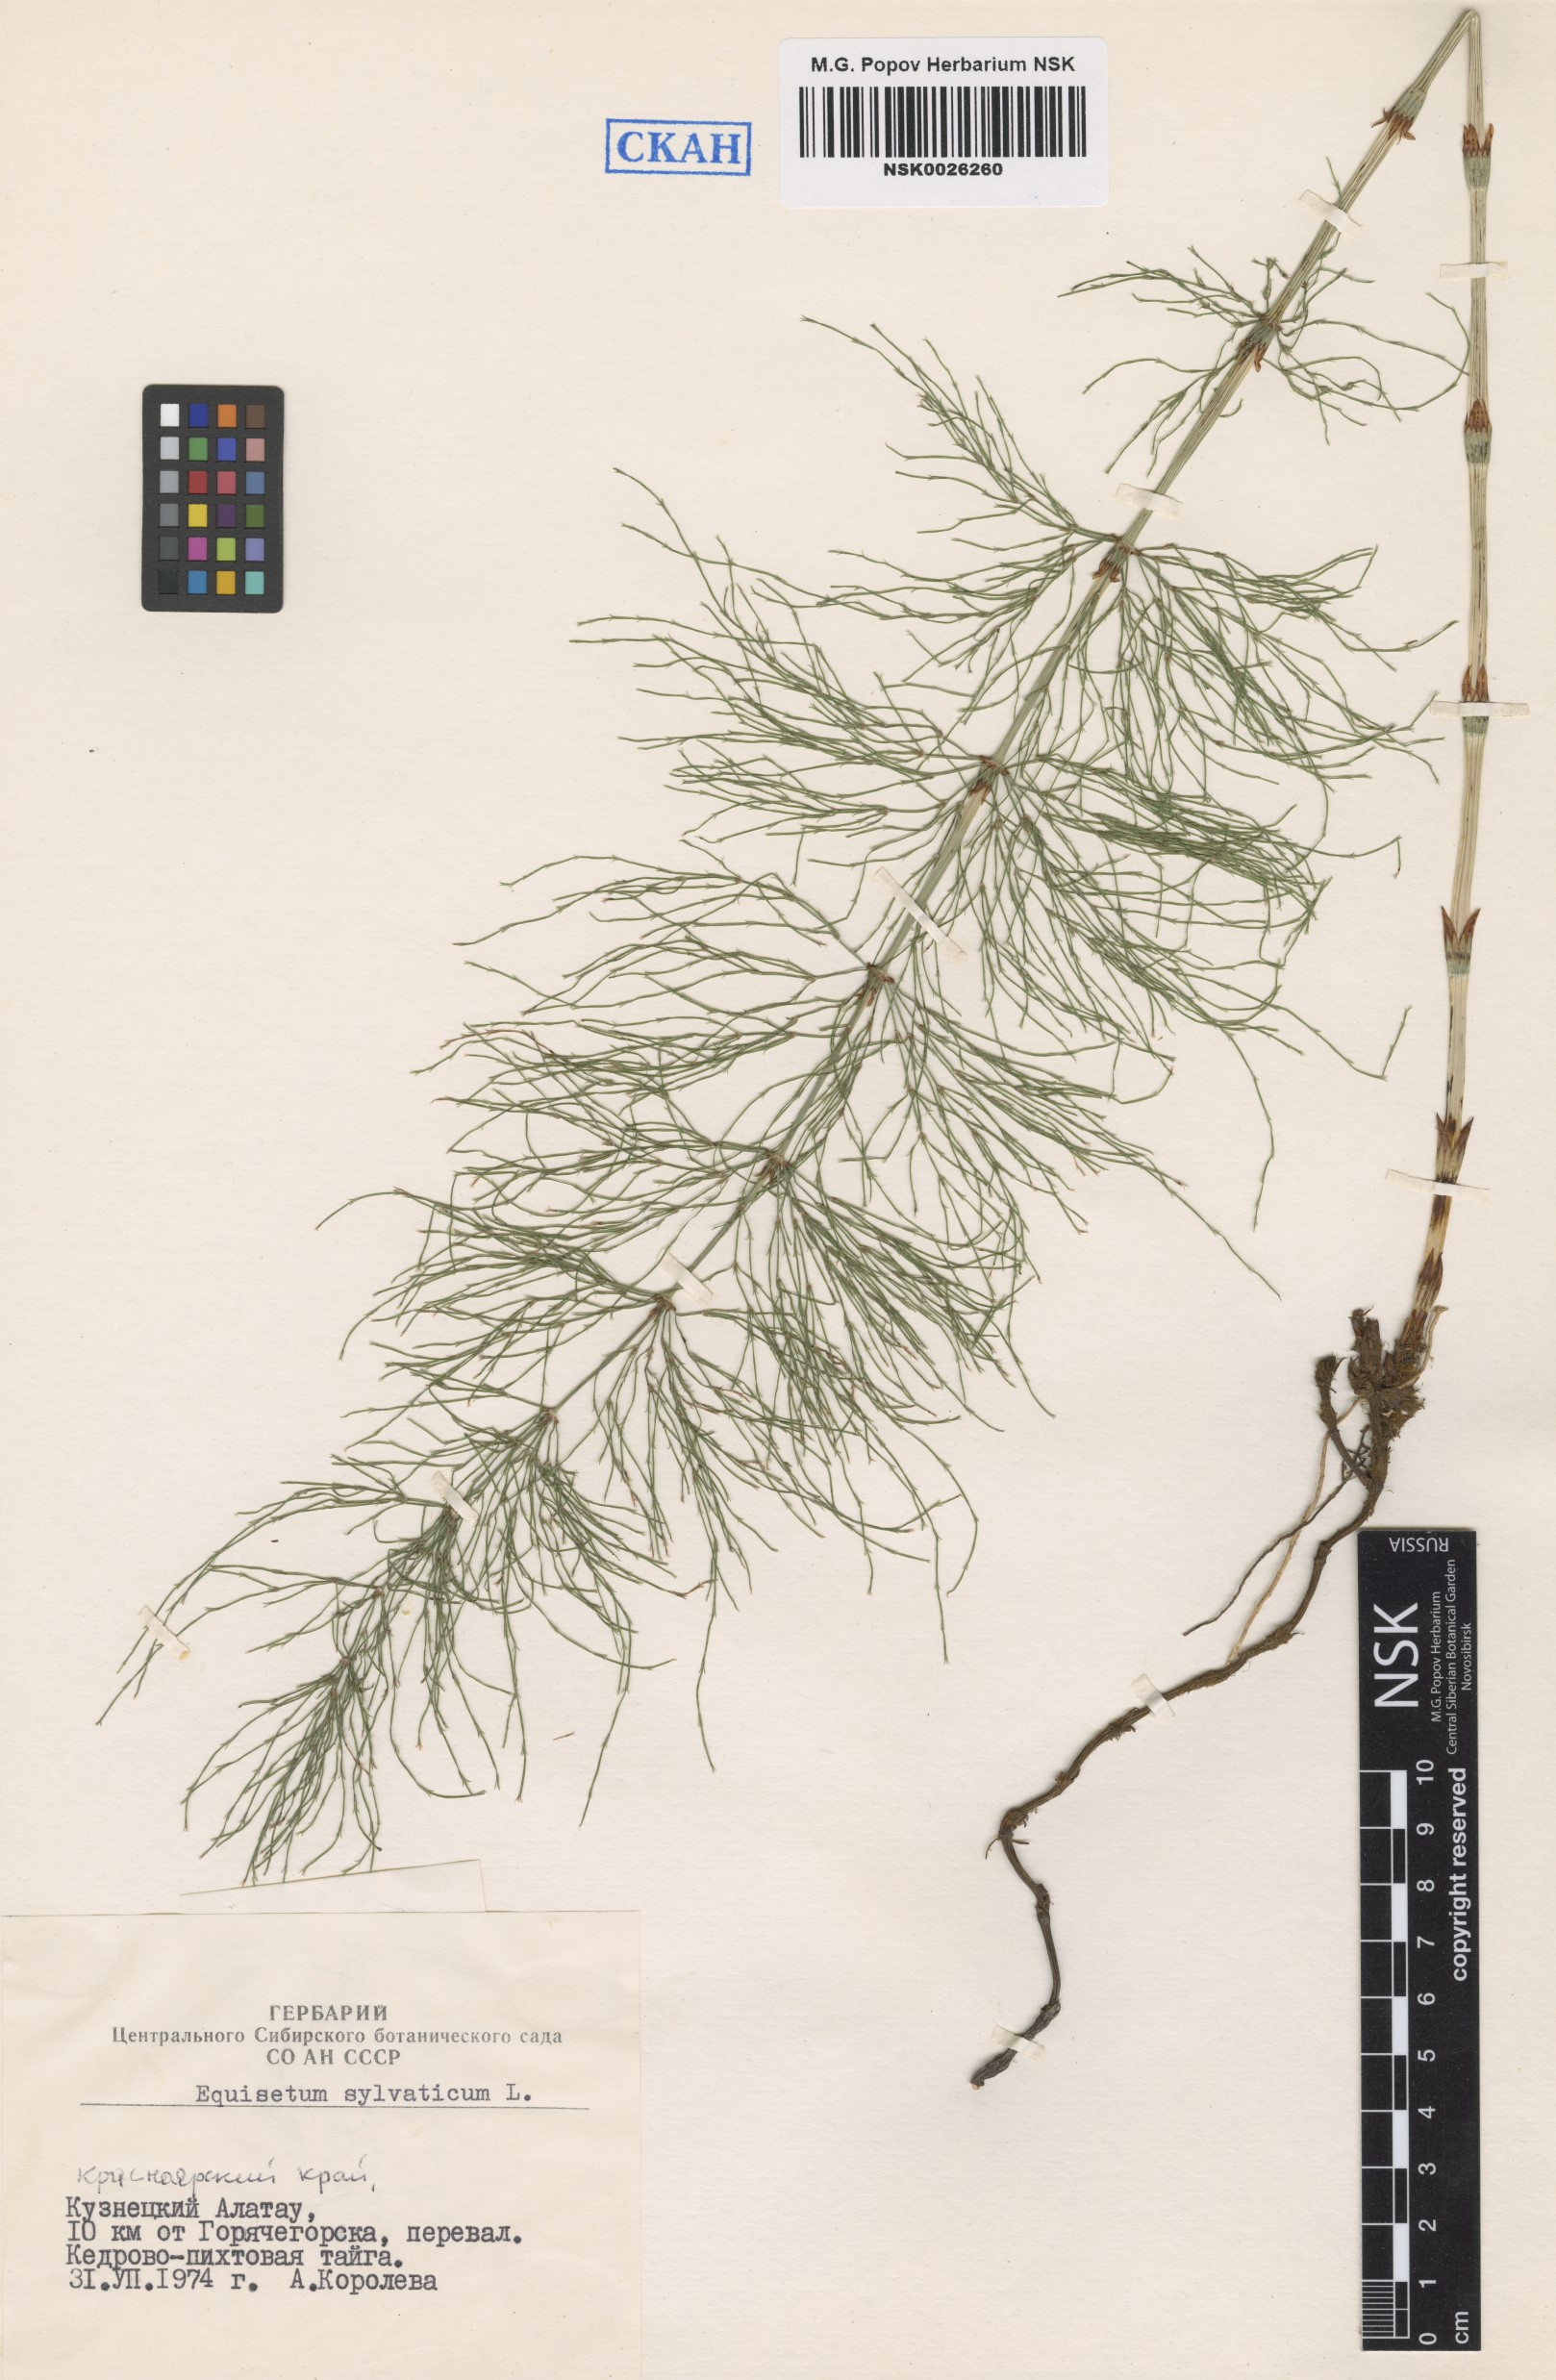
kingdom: Plantae
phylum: Tracheophyta
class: Polypodiopsida
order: Equisetales
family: Equisetaceae
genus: Equisetum
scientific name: Equisetum sylvaticum
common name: Wood horsetail
